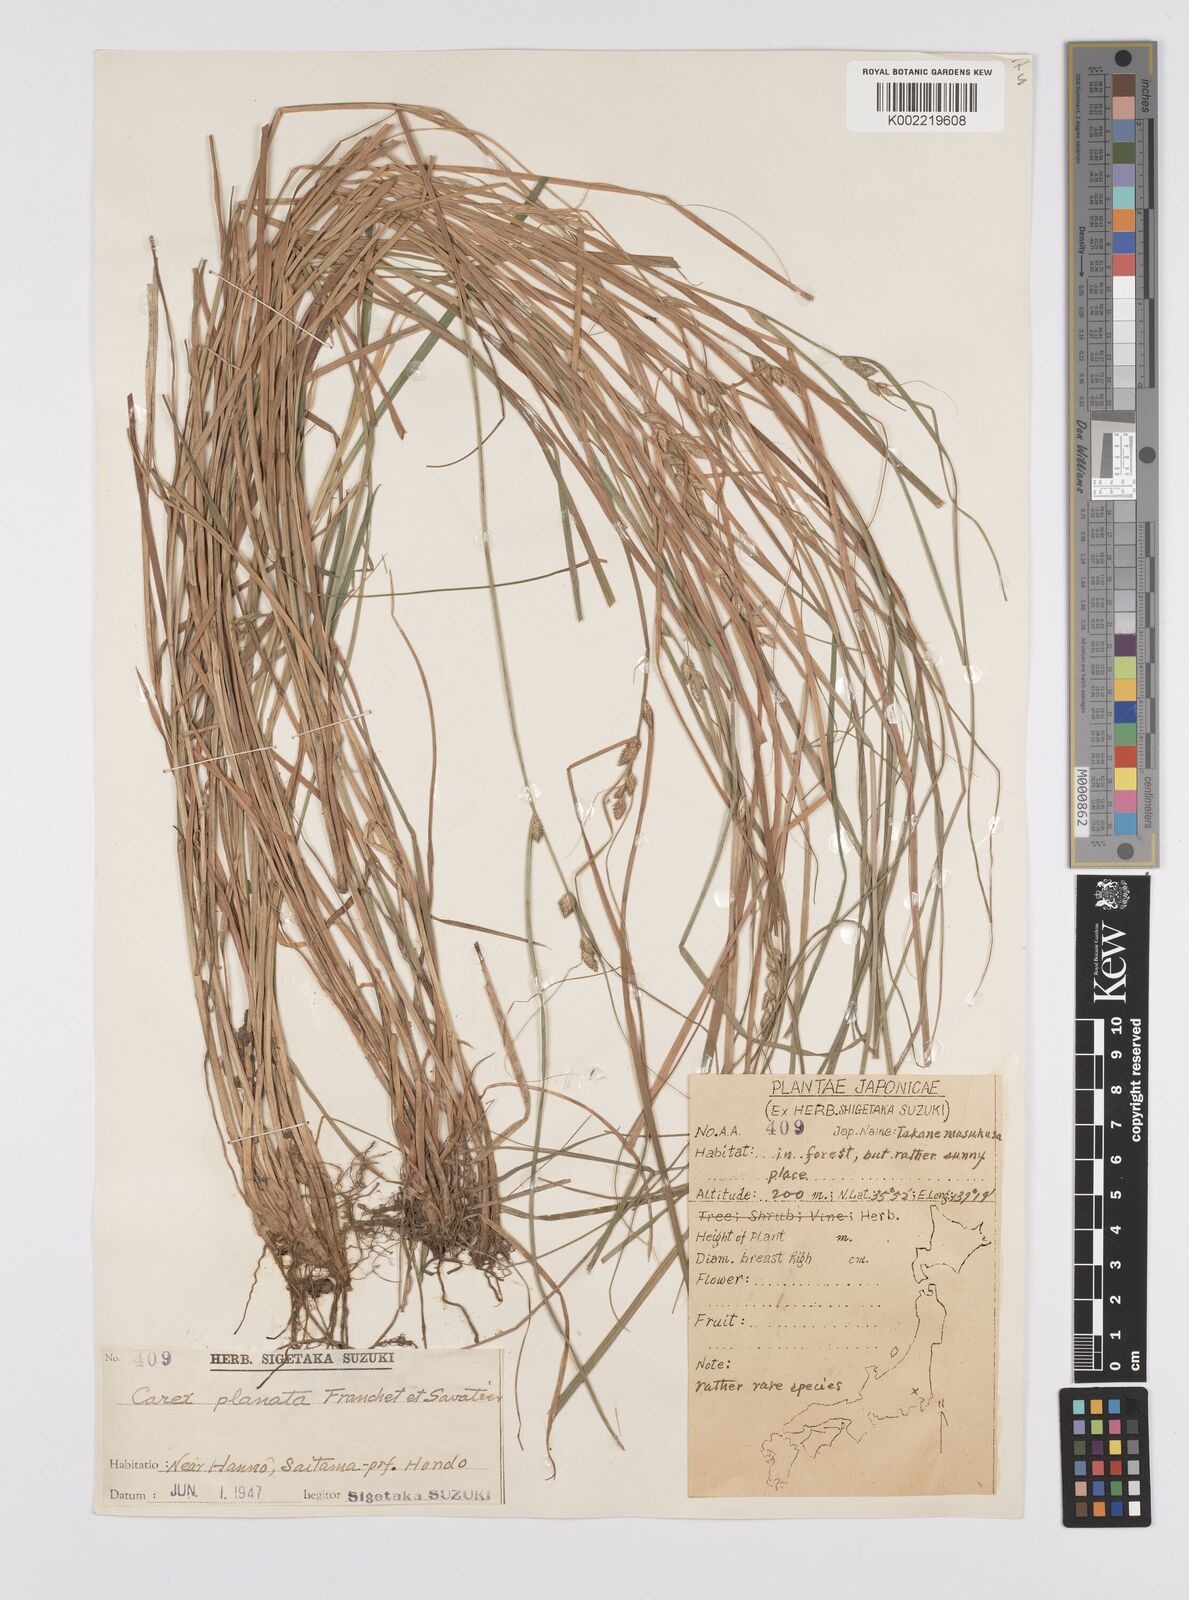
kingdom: Plantae
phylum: Tracheophyta
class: Liliopsida
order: Poales
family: Cyperaceae
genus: Carex
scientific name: Carex planata
